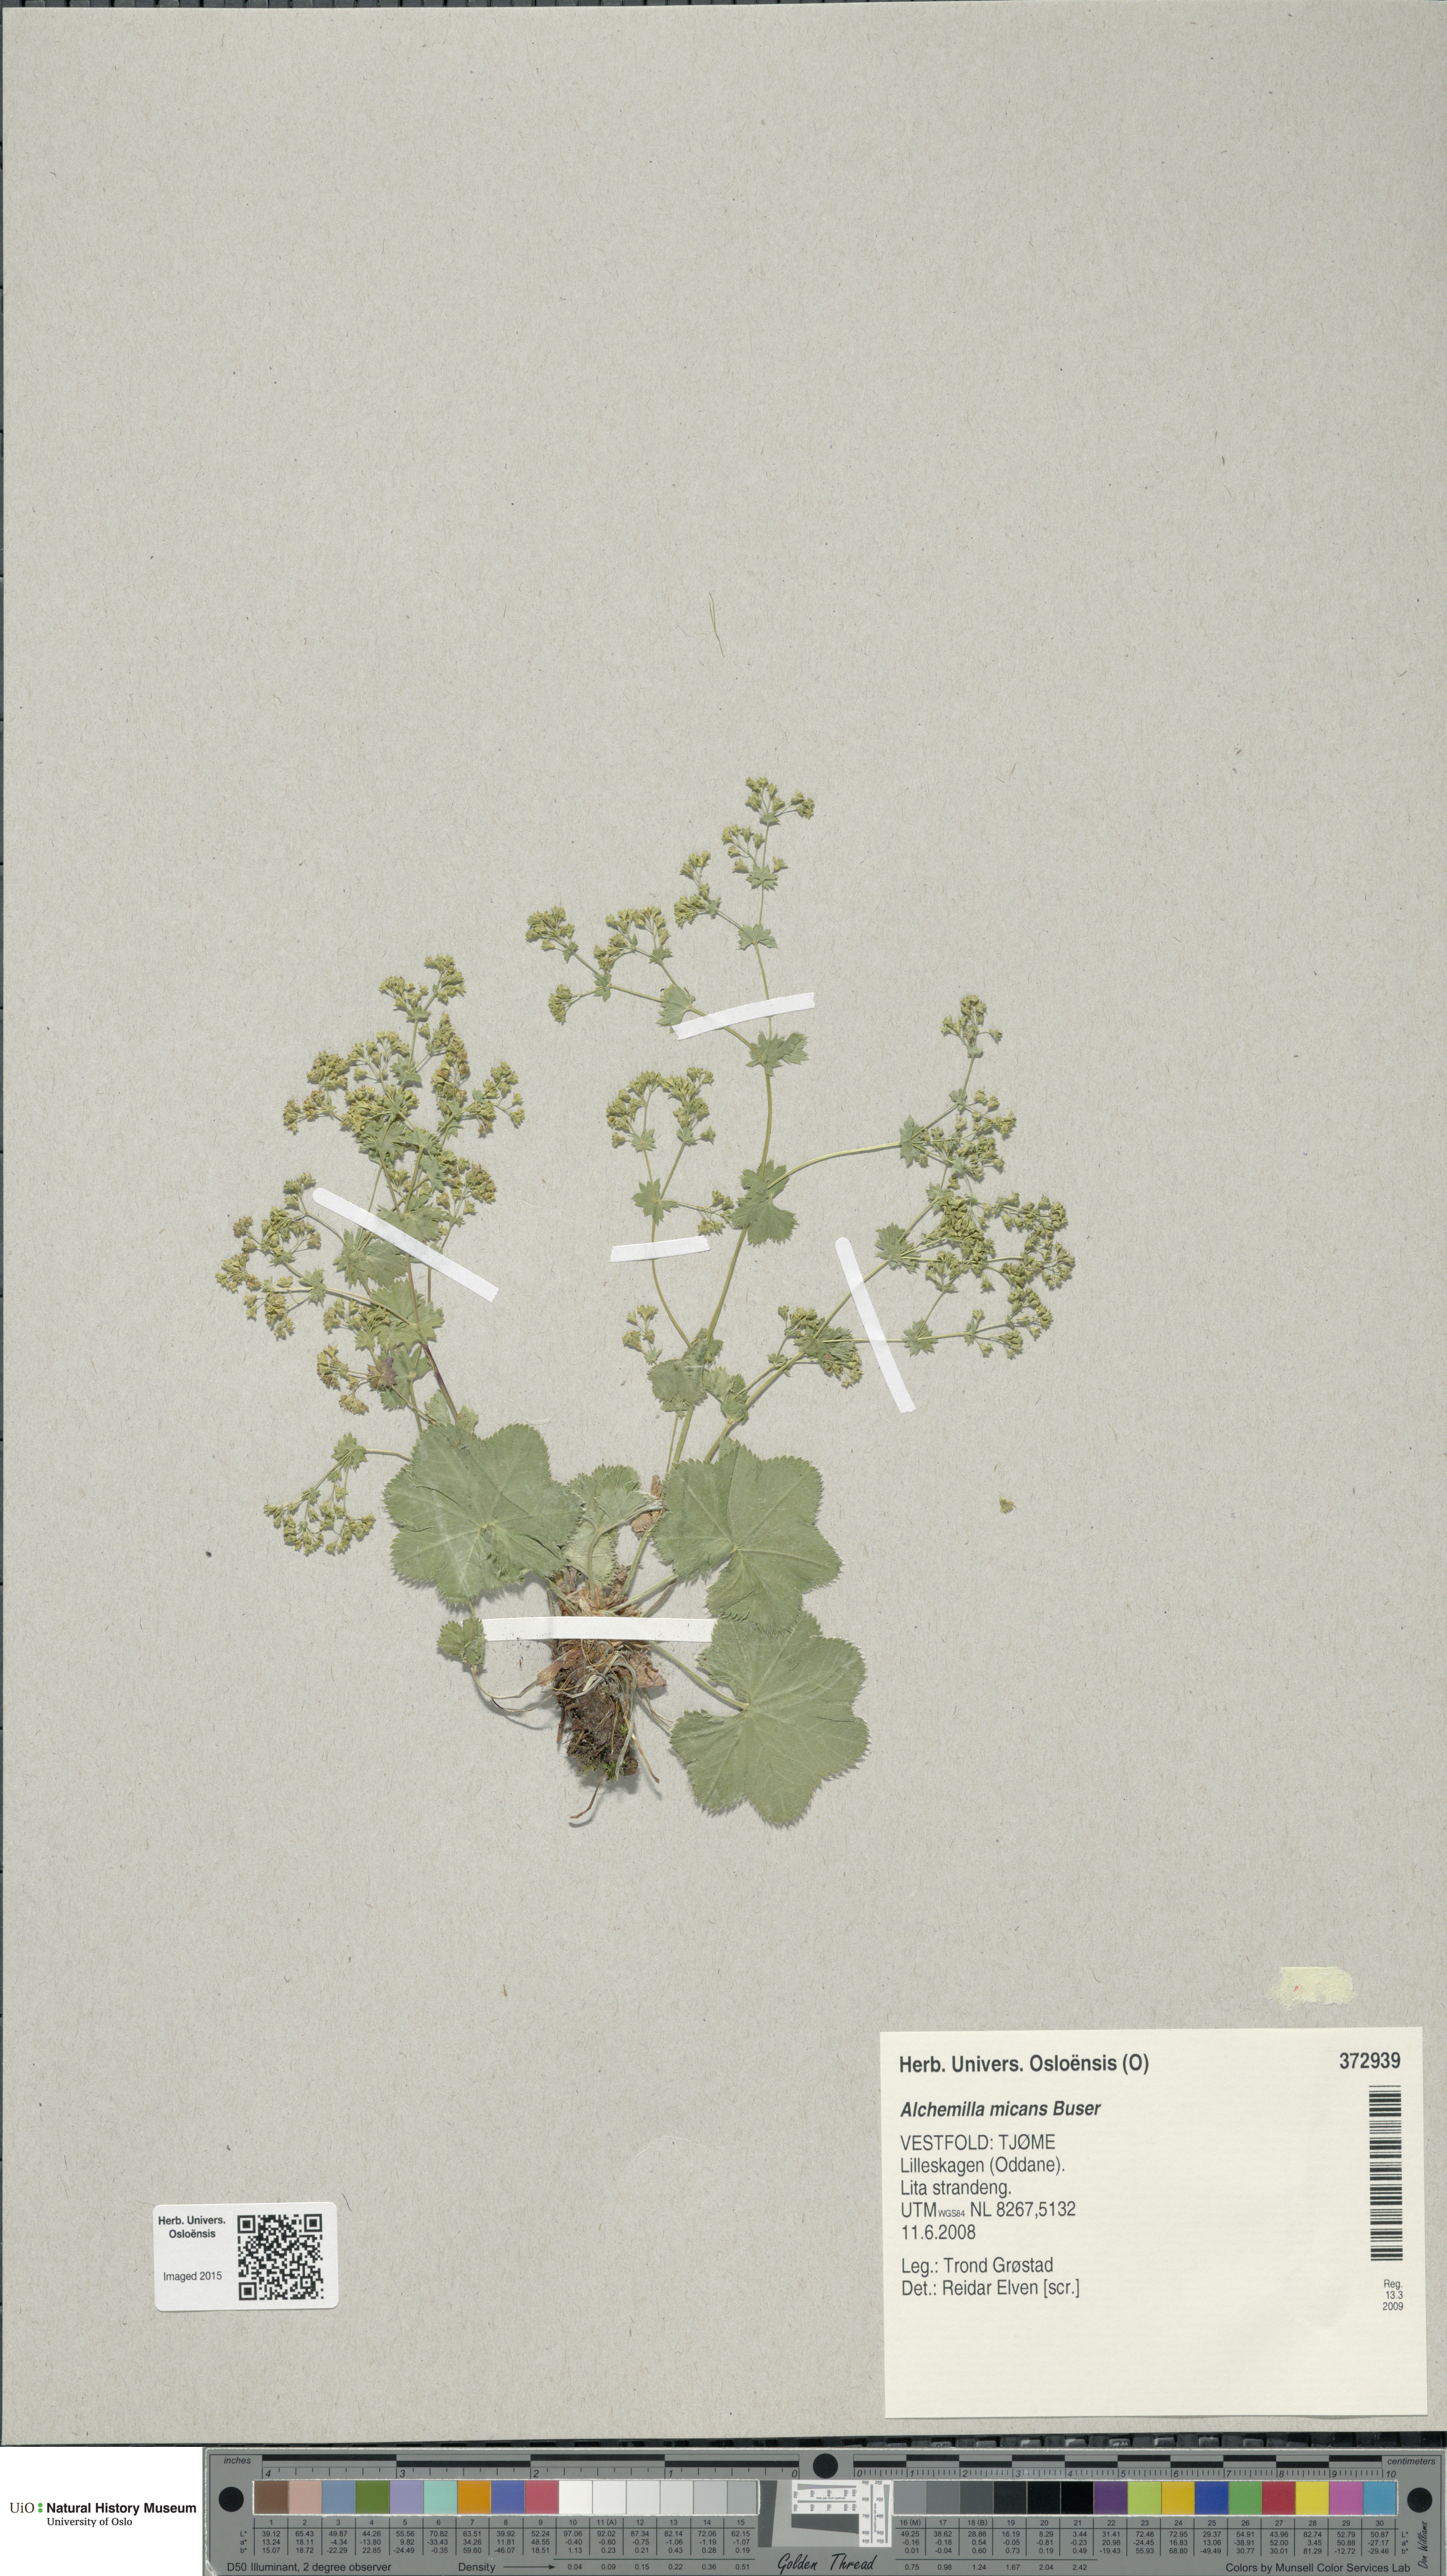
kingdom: Plantae
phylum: Tracheophyta
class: Magnoliopsida
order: Rosales
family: Rosaceae
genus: Alchemilla
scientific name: Alchemilla micans
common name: Gleaming lady's mantle
